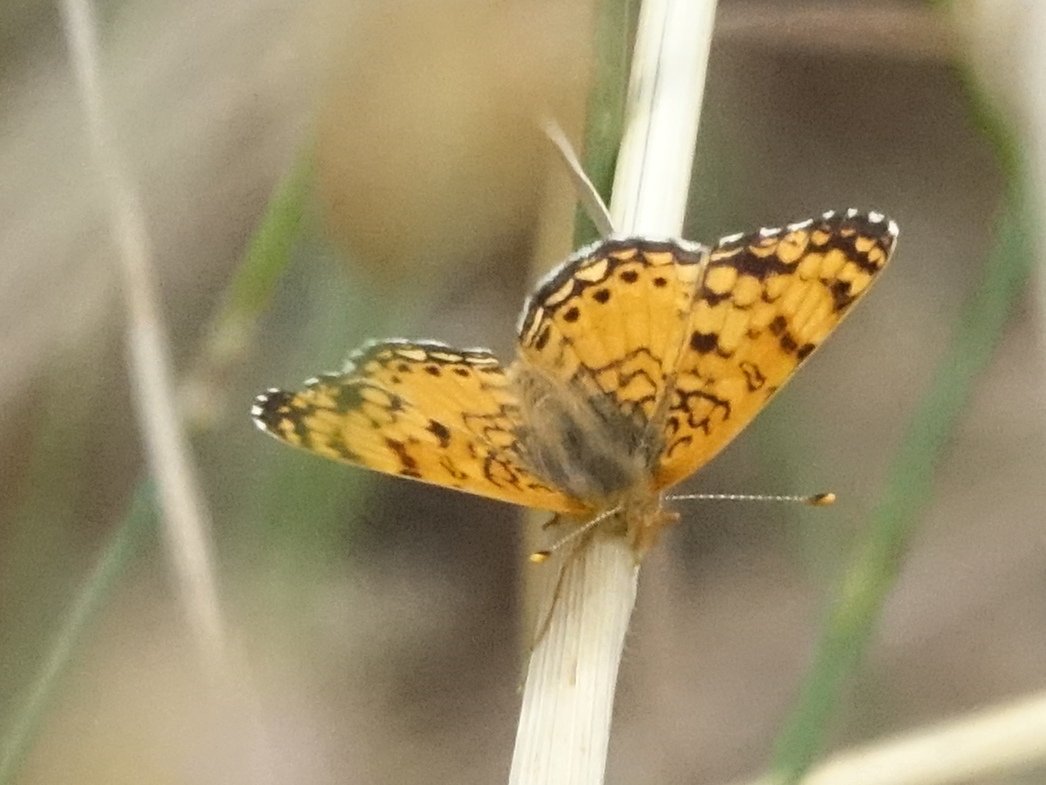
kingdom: Animalia
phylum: Arthropoda
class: Insecta
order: Lepidoptera
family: Nymphalidae
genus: Eresia
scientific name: Eresia aveyrona
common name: Mylitta Crescent
